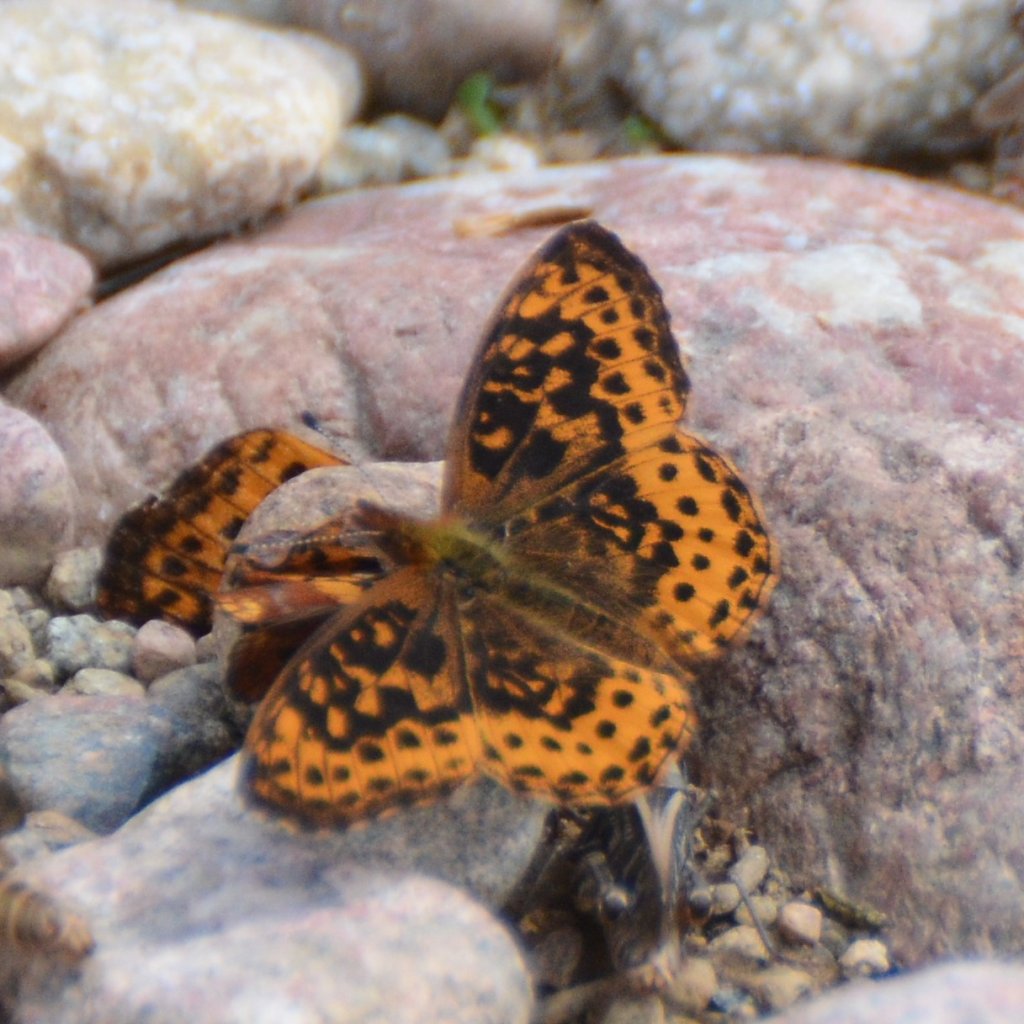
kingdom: Animalia
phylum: Arthropoda
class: Insecta
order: Lepidoptera
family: Nymphalidae
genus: Clossiana
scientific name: Clossiana toddi
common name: Meadow Fritillary
